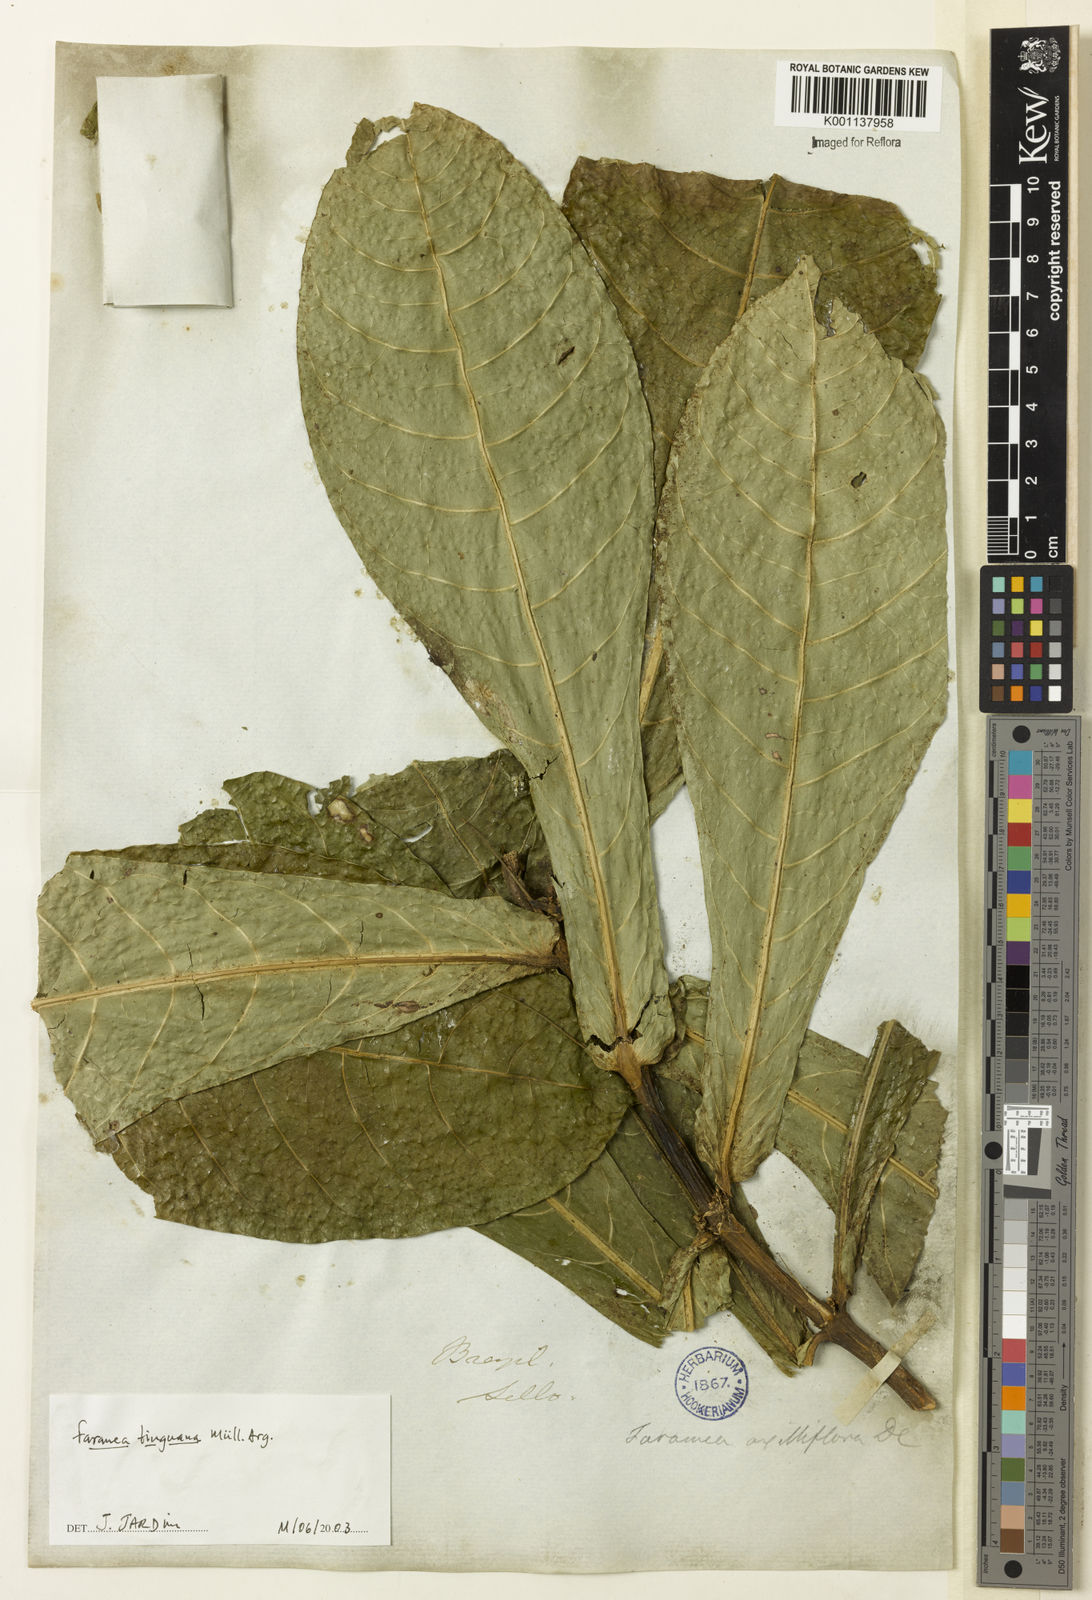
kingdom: Plantae
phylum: Tracheophyta
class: Magnoliopsida
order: Gentianales
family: Rubiaceae
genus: Faramea
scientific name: Faramea
